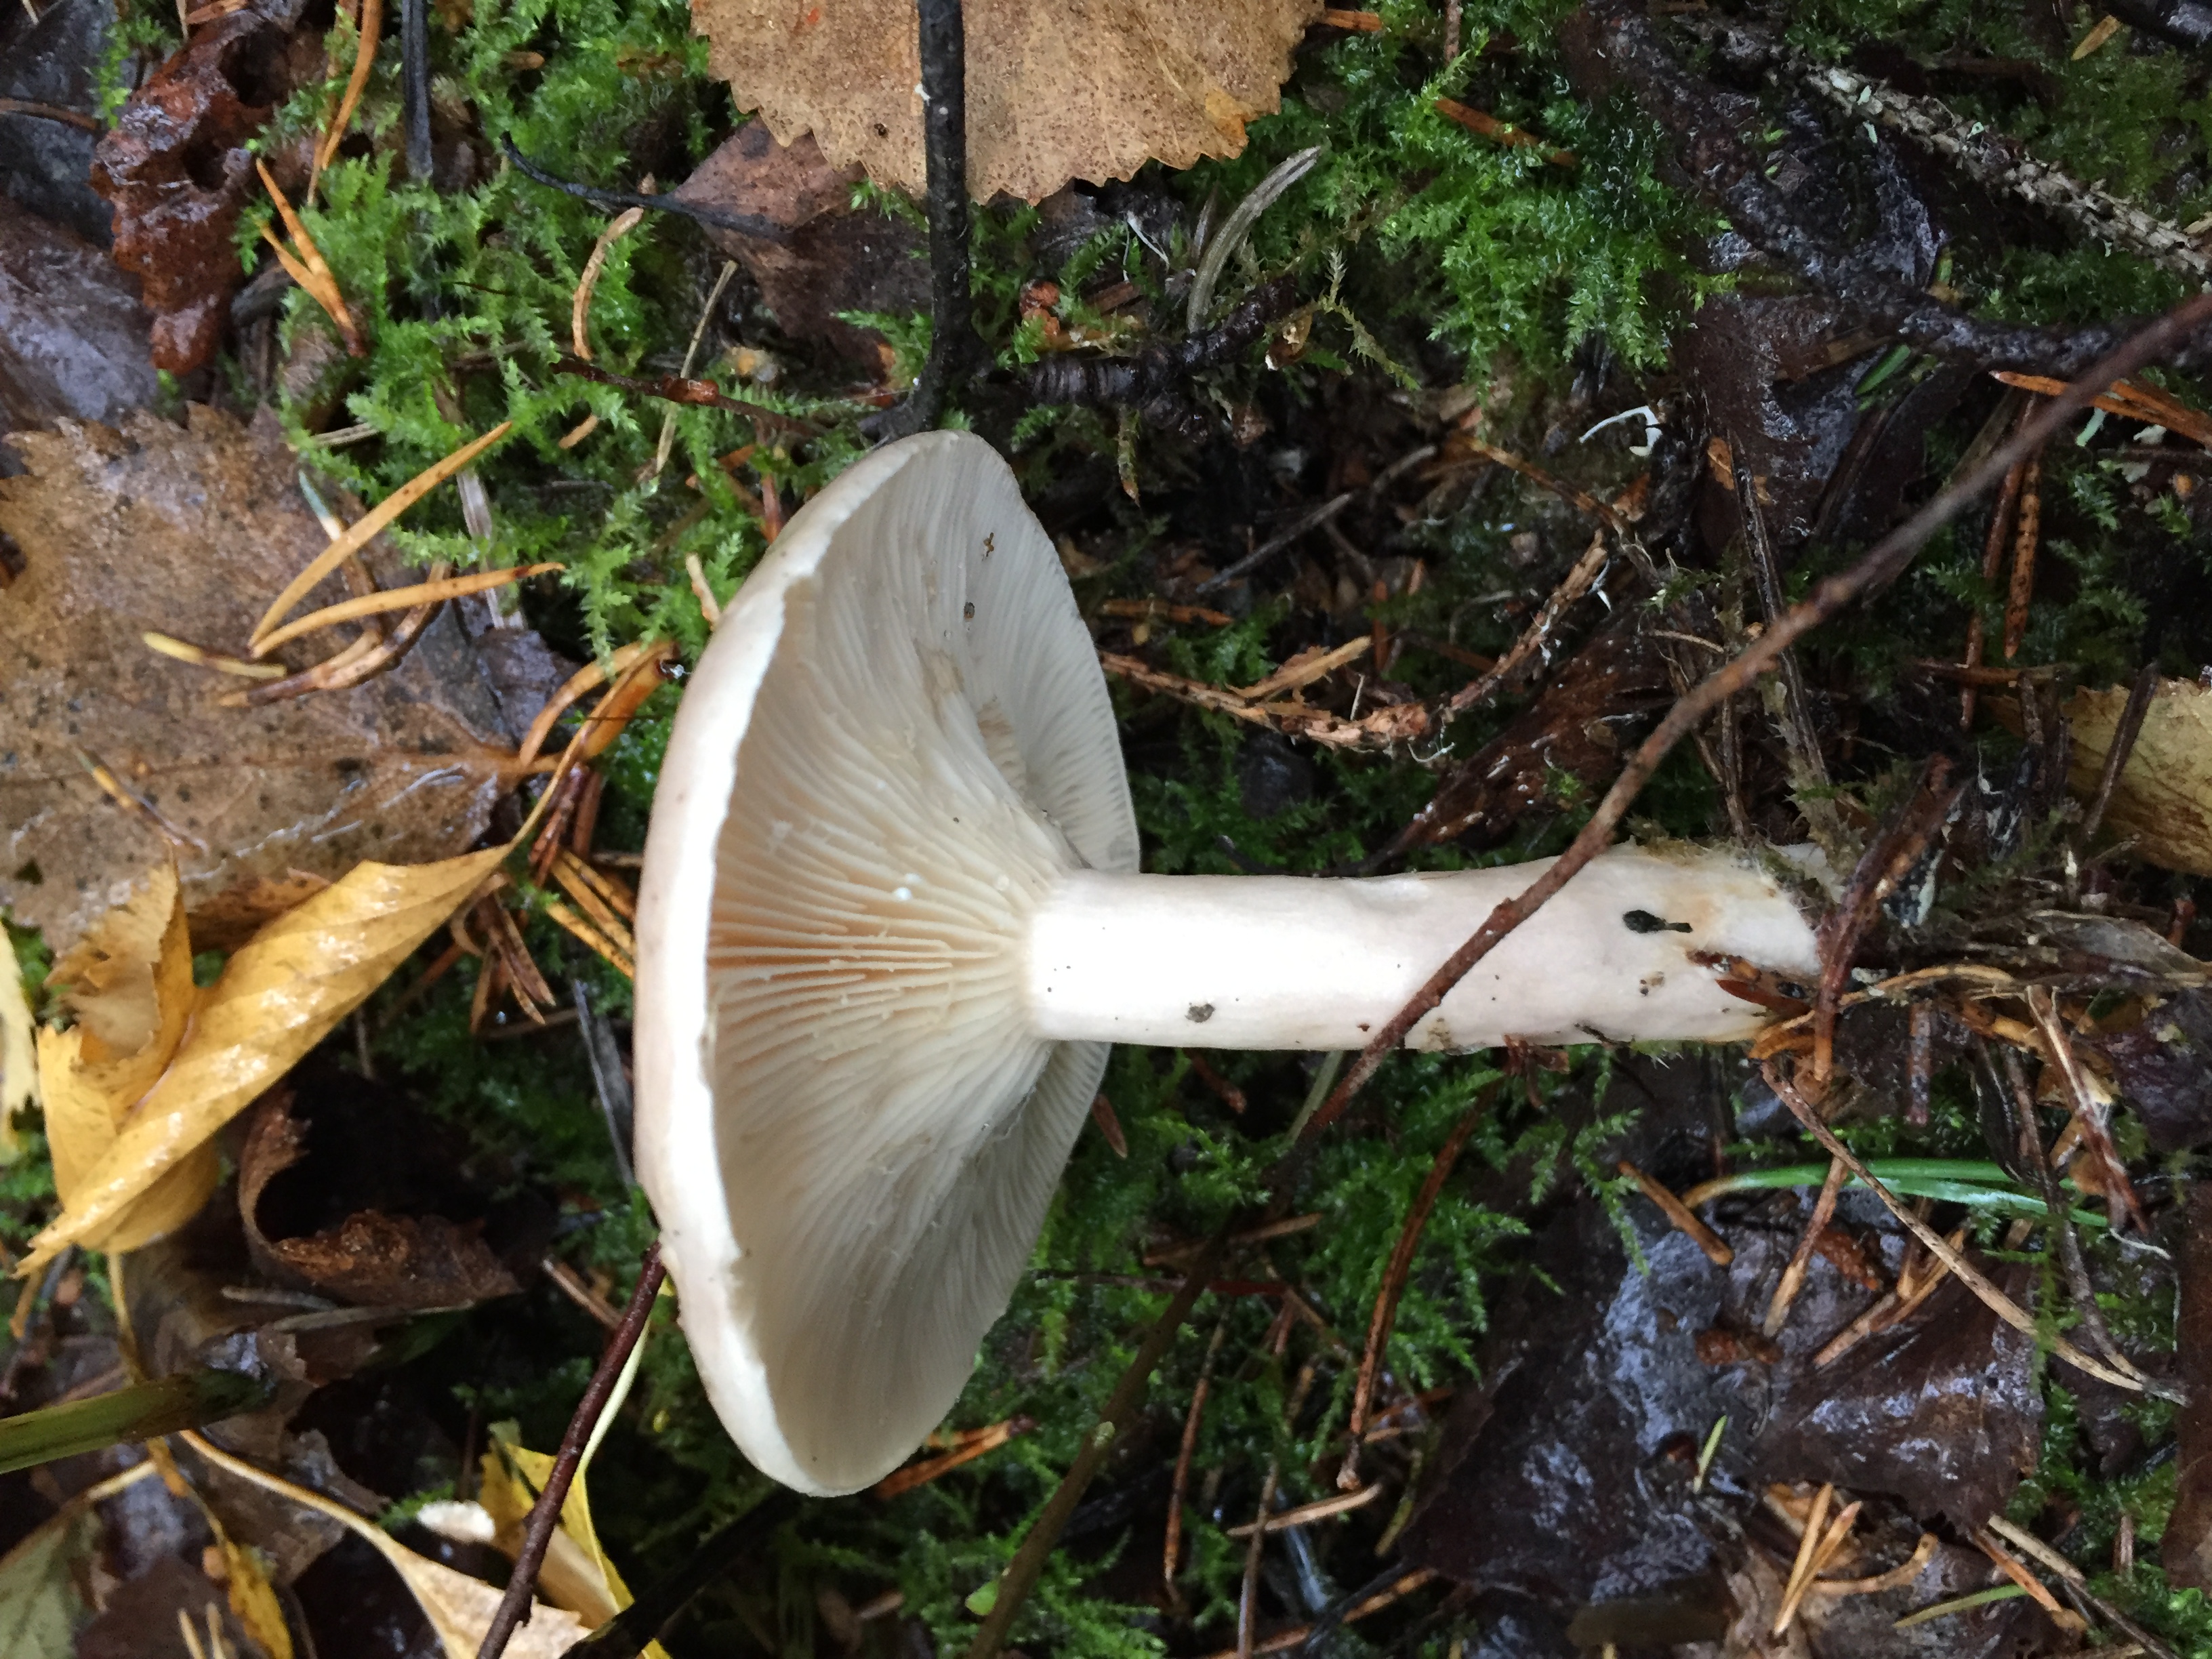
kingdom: Fungi
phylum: Basidiomycota
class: Agaricomycetes
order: Russulales
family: Russulaceae
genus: Lactarius
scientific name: Lactarius utilis
